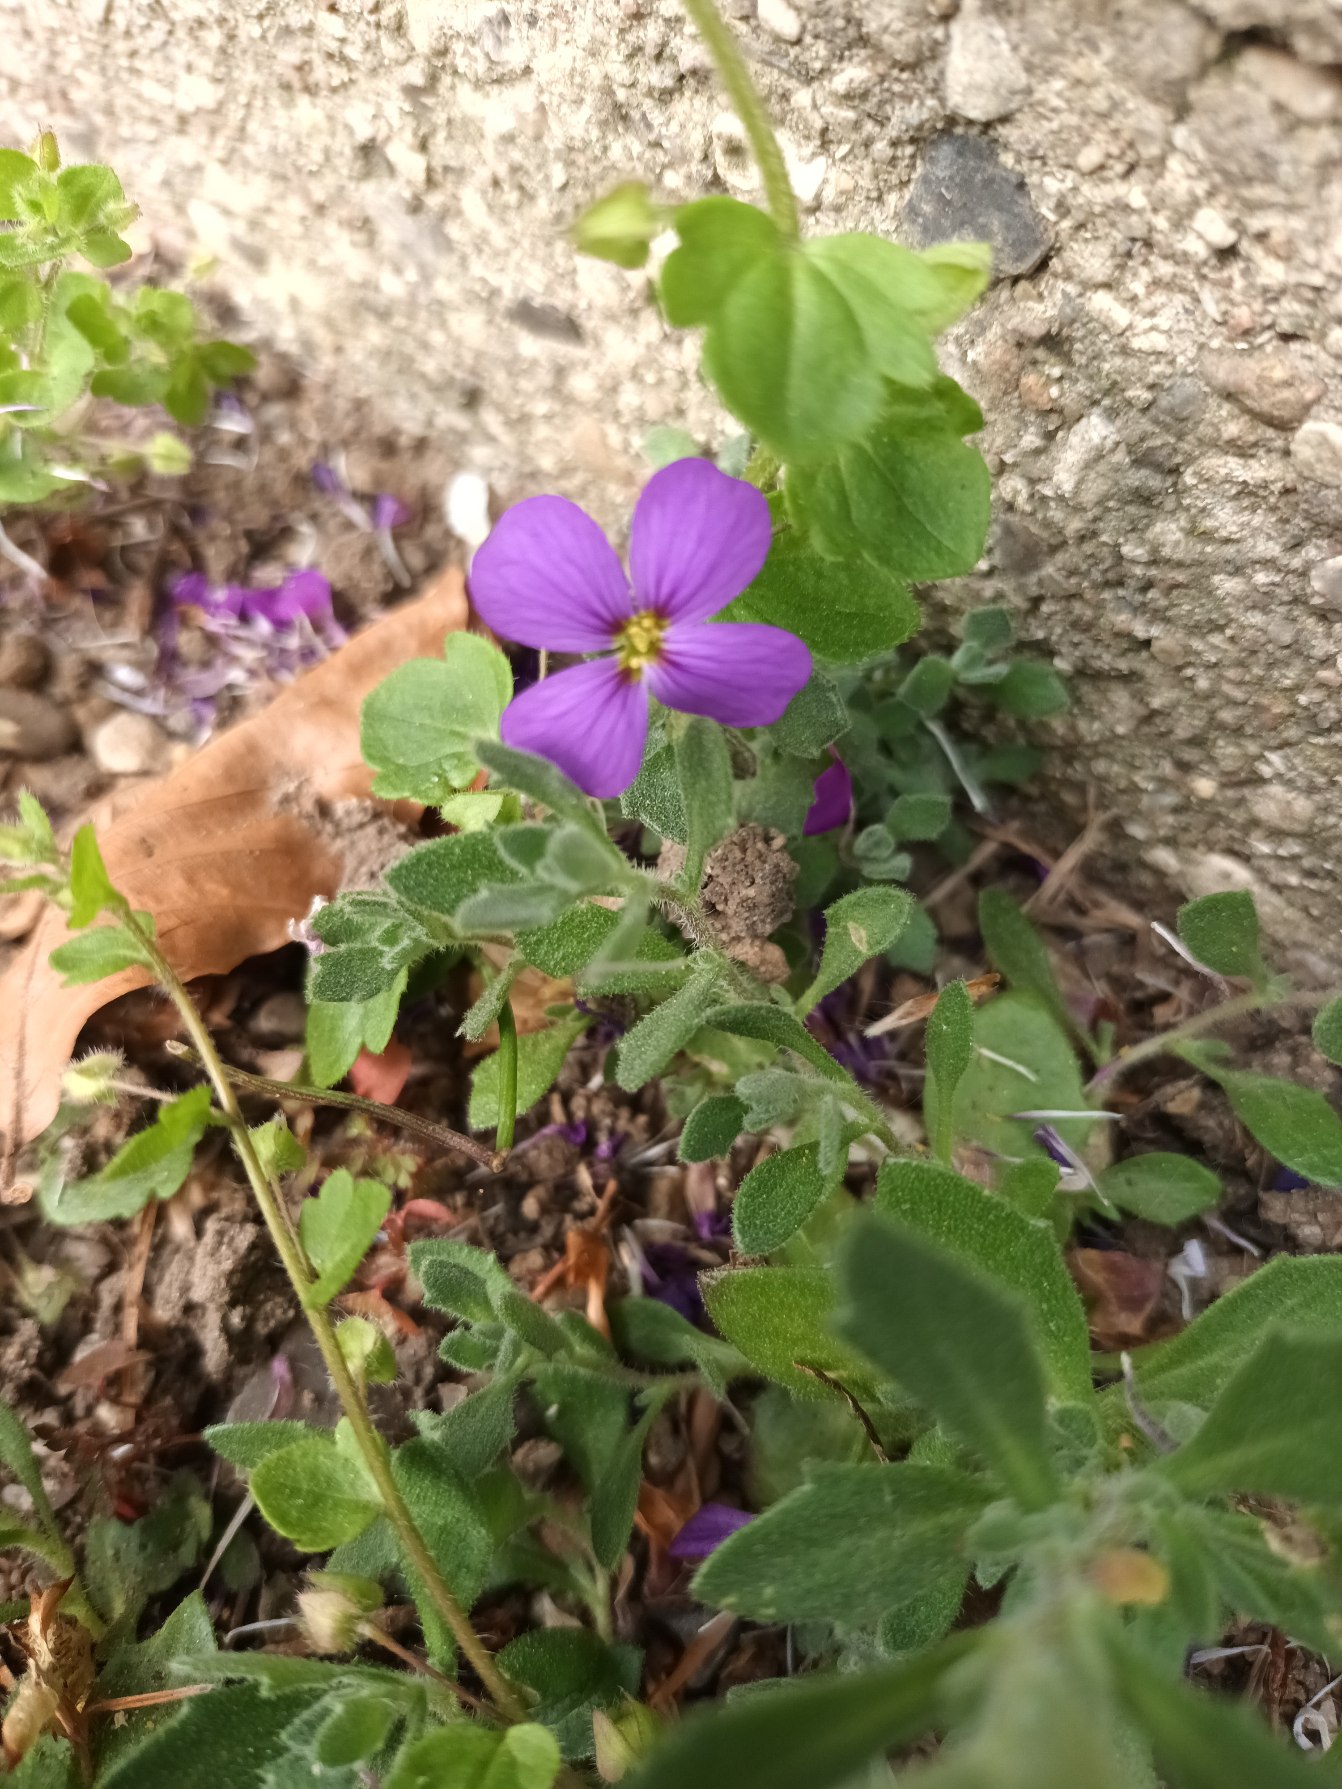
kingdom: Plantae
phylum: Tracheophyta
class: Magnoliopsida
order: Brassicales
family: Brassicaceae
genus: Aubrieta
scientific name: Aubrieta cultorum
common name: Blåpude
